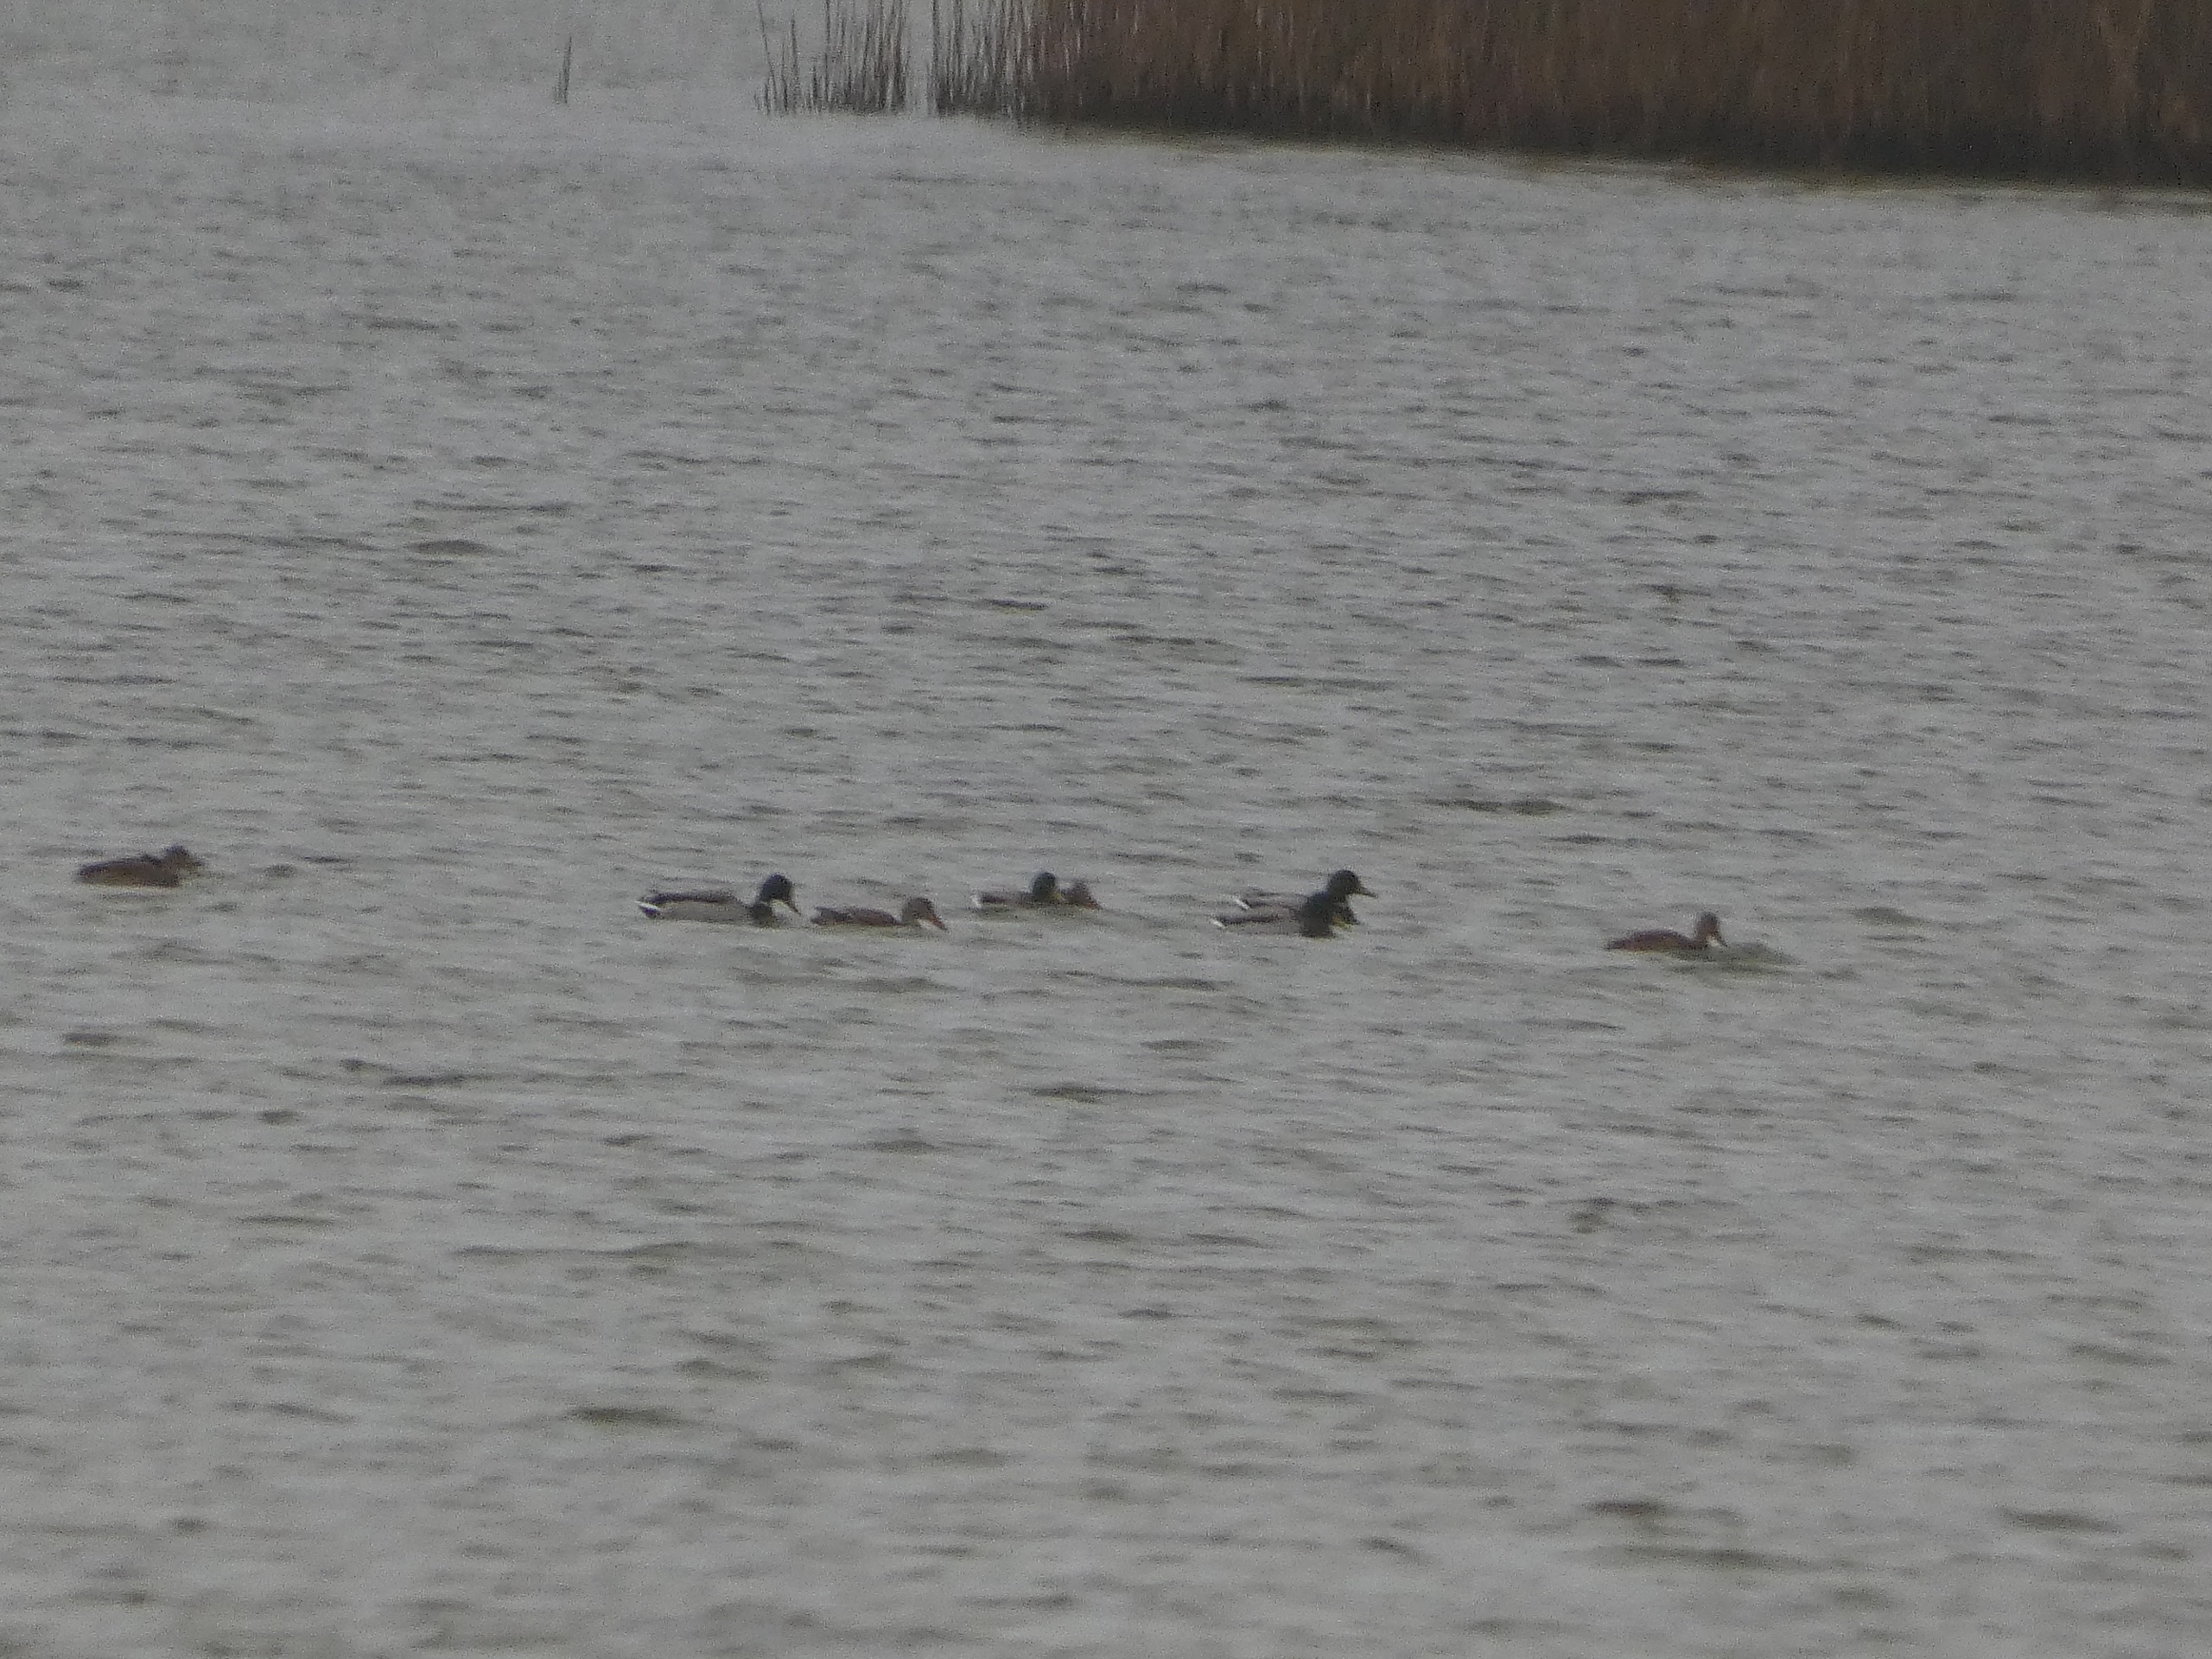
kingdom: Animalia
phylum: Chordata
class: Aves
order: Anseriformes
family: Anatidae
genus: Anas
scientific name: Anas platyrhynchos
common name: Gråand
